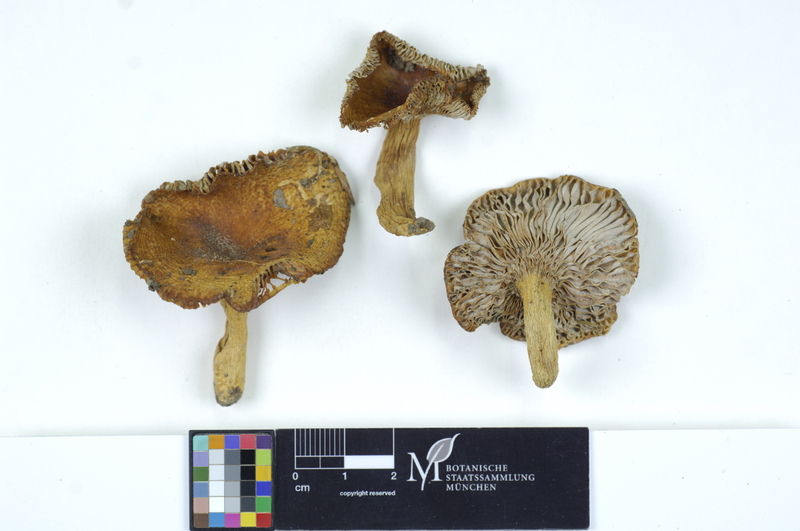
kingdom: Fungi
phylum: Basidiomycota
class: Agaricomycetes
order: Russulales
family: Russulaceae
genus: Russula
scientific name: Russula farinipes
